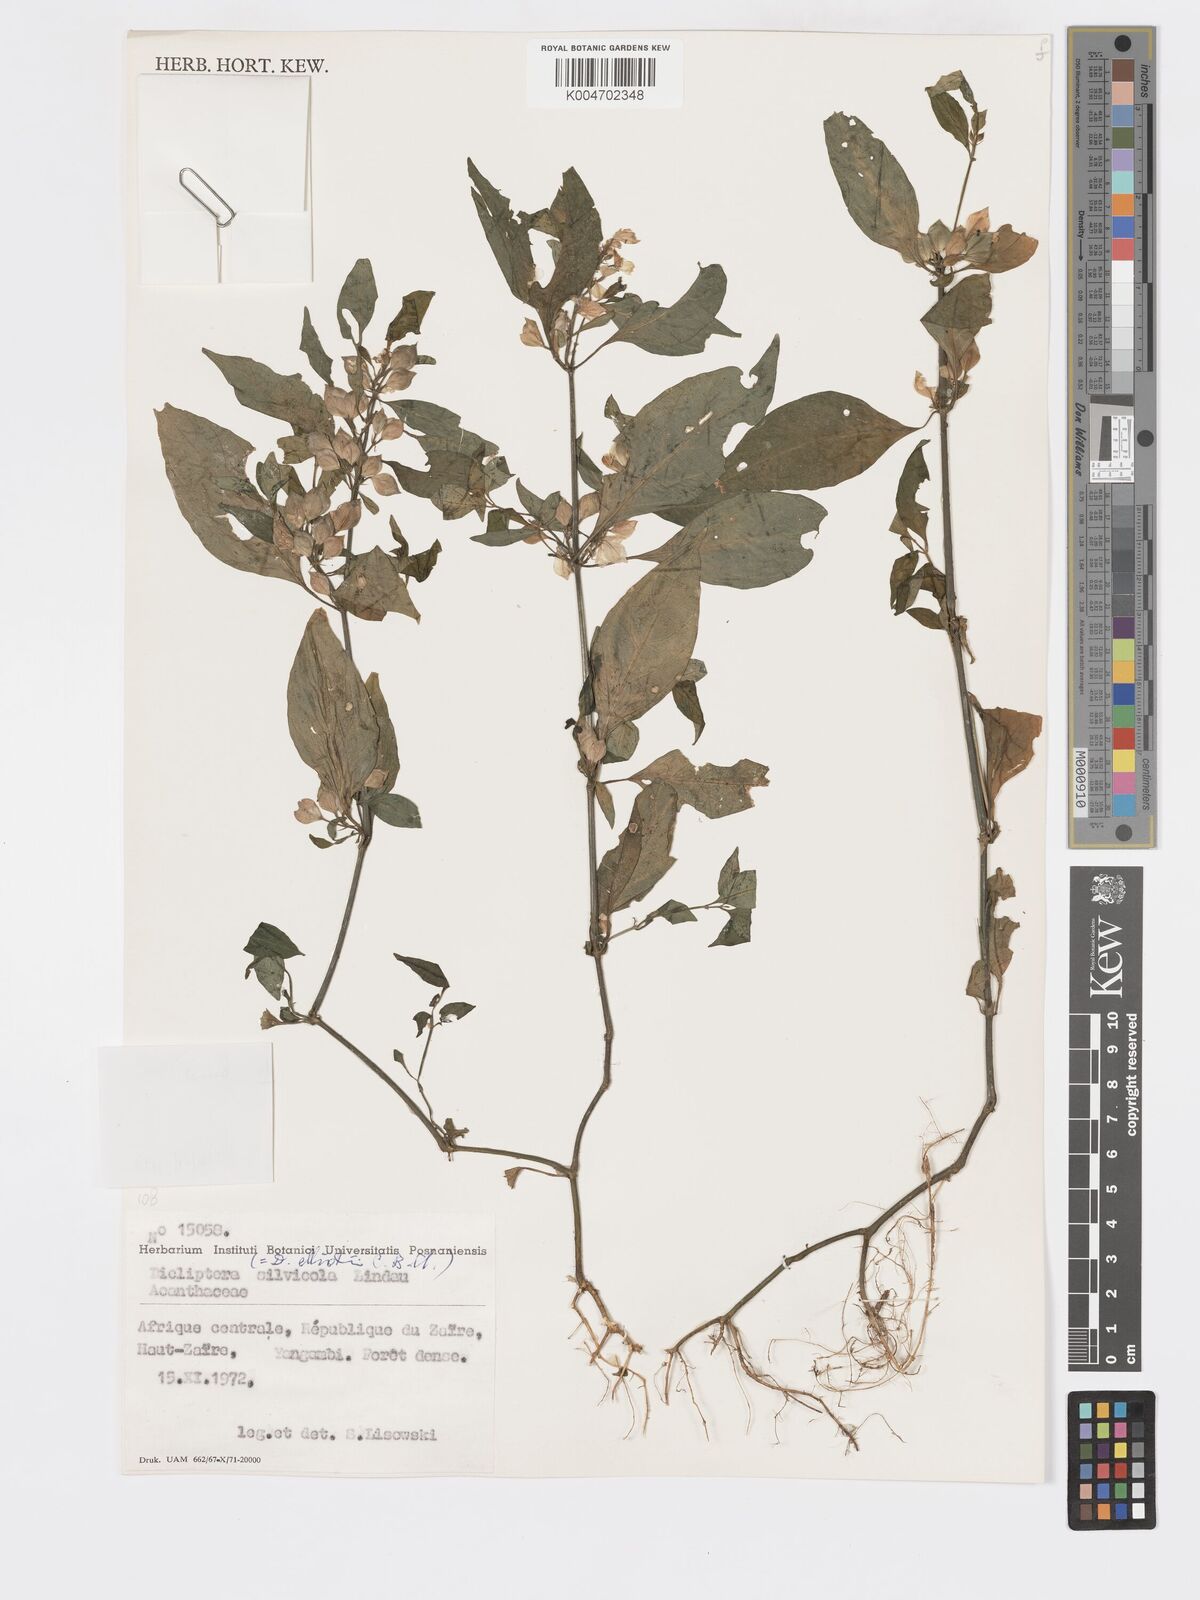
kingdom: Plantae
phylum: Tracheophyta
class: Magnoliopsida
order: Lamiales
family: Acanthaceae
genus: Dicliptera
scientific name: Dicliptera elliotii
